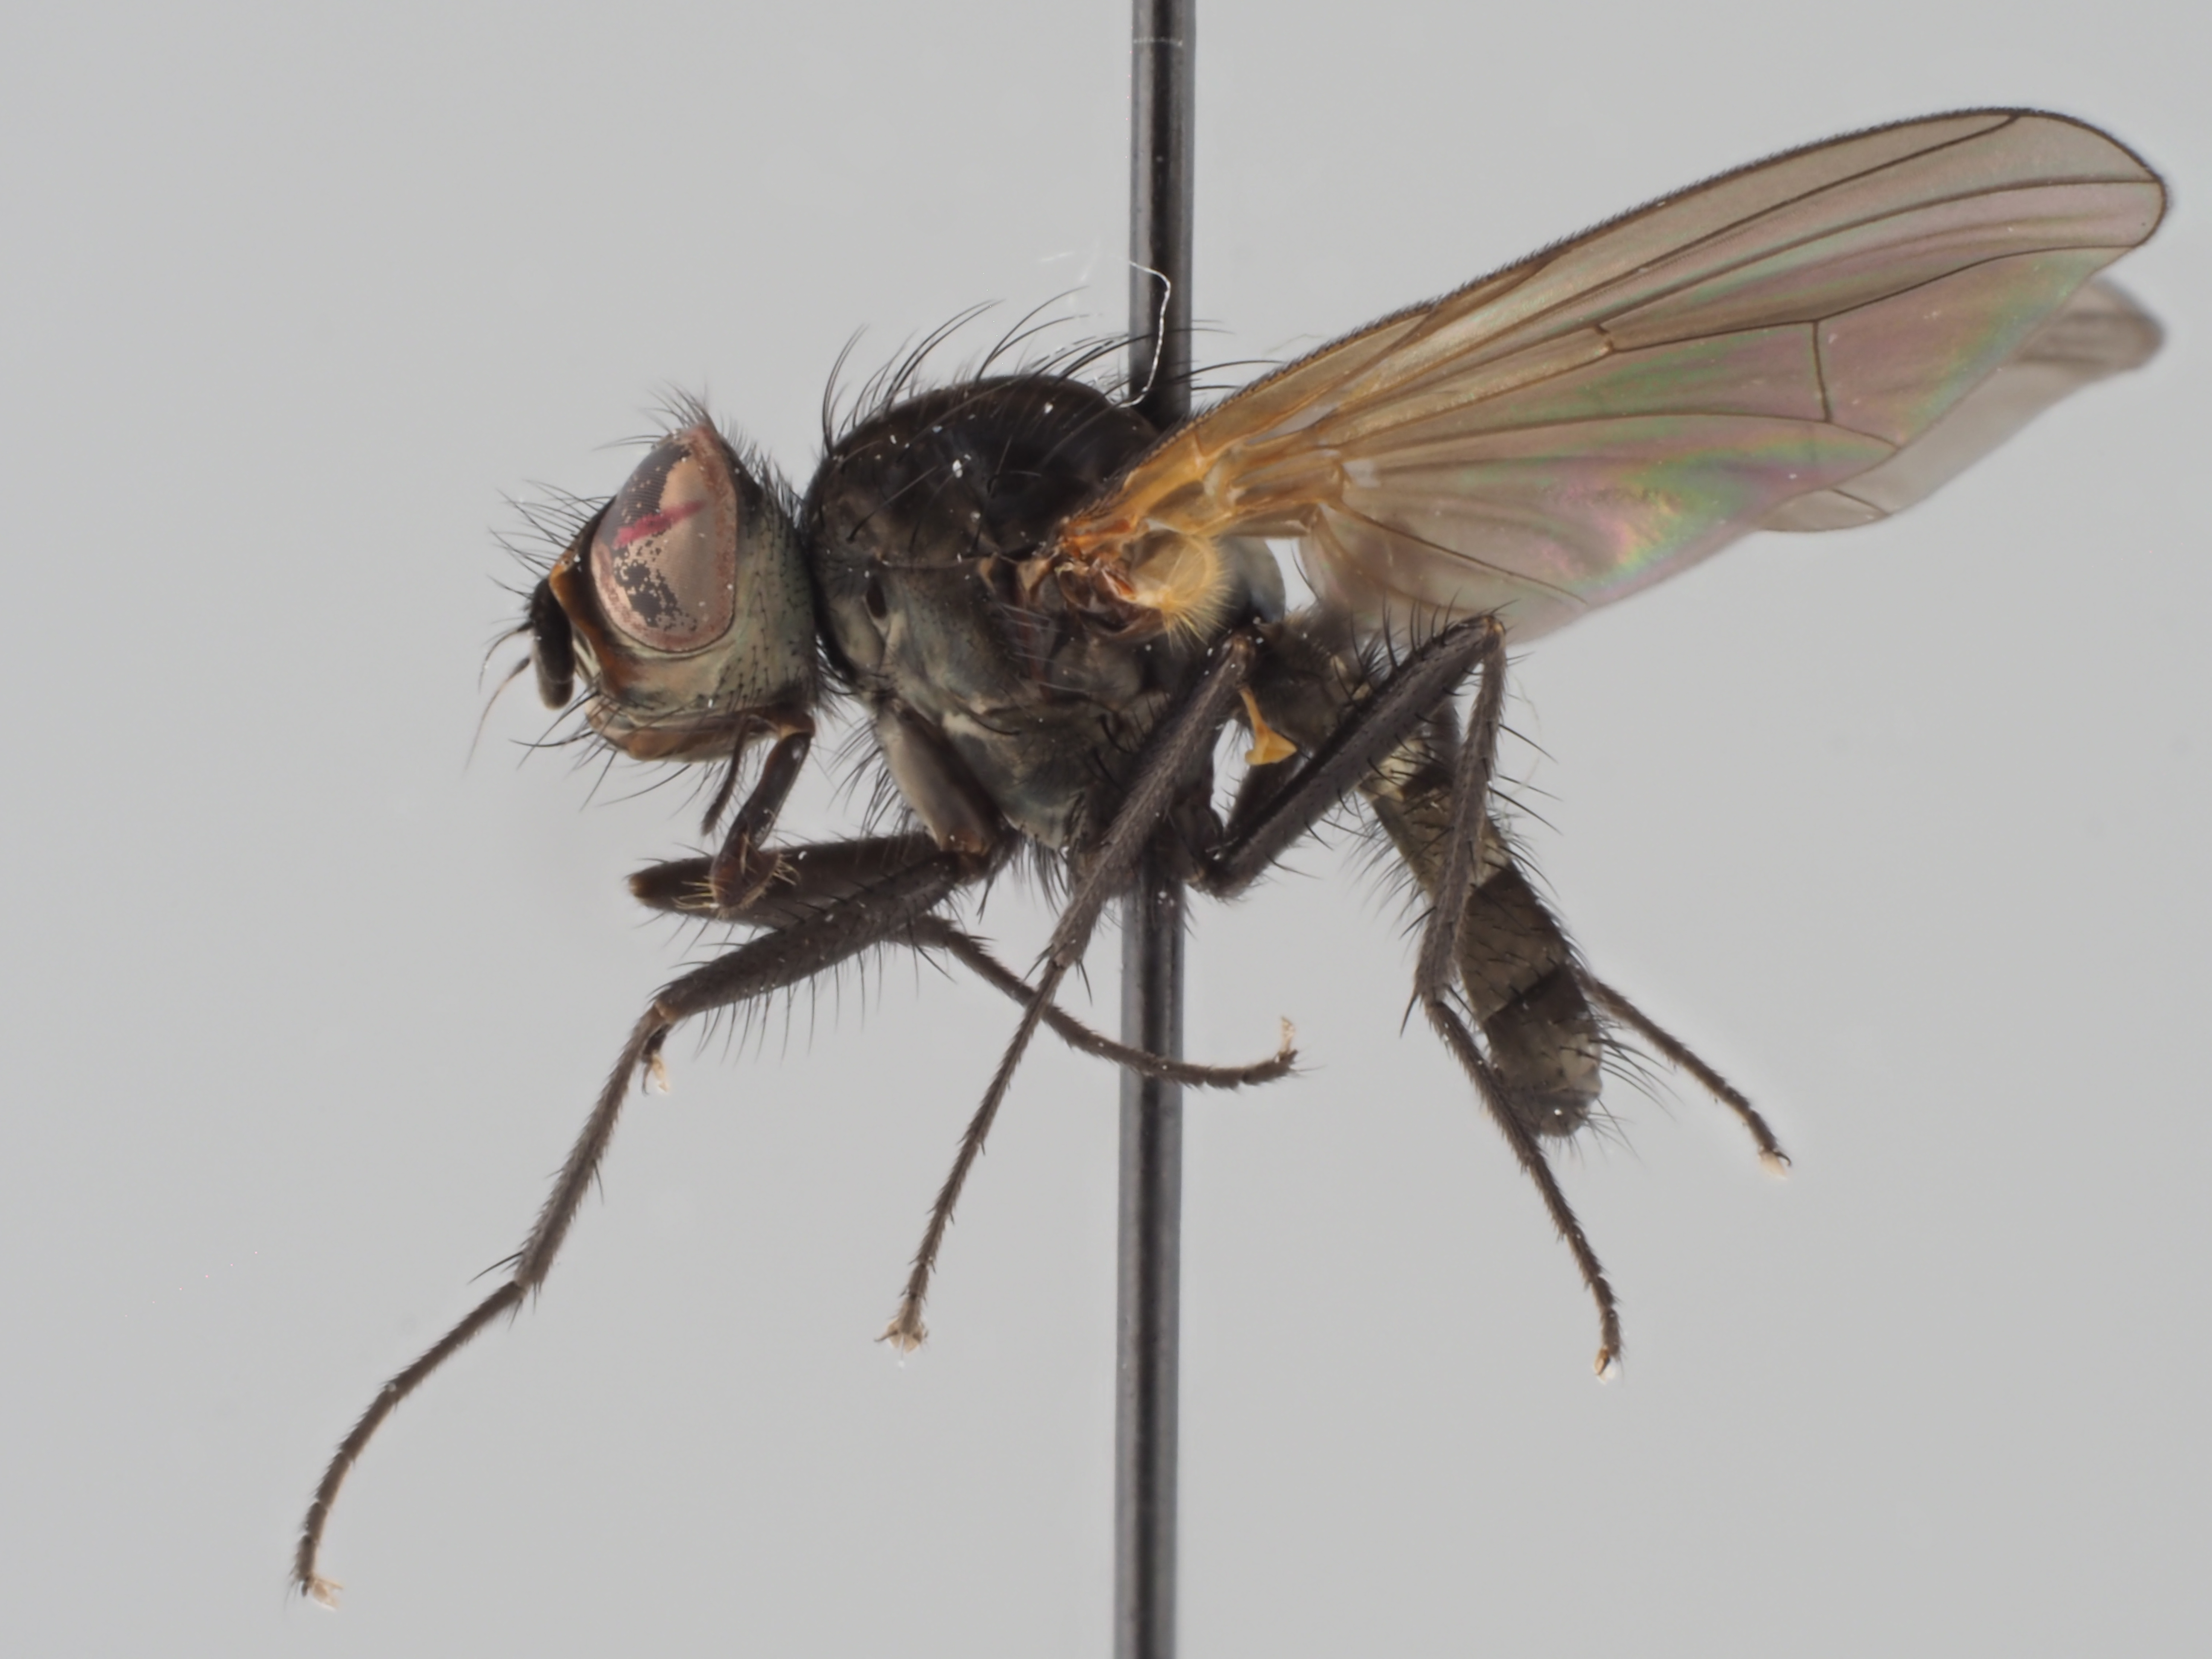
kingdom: Animalia
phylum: Arthropoda
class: Insecta
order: Diptera
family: Anthomyiidae
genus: Botanophila
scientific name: Botanophila gnava
